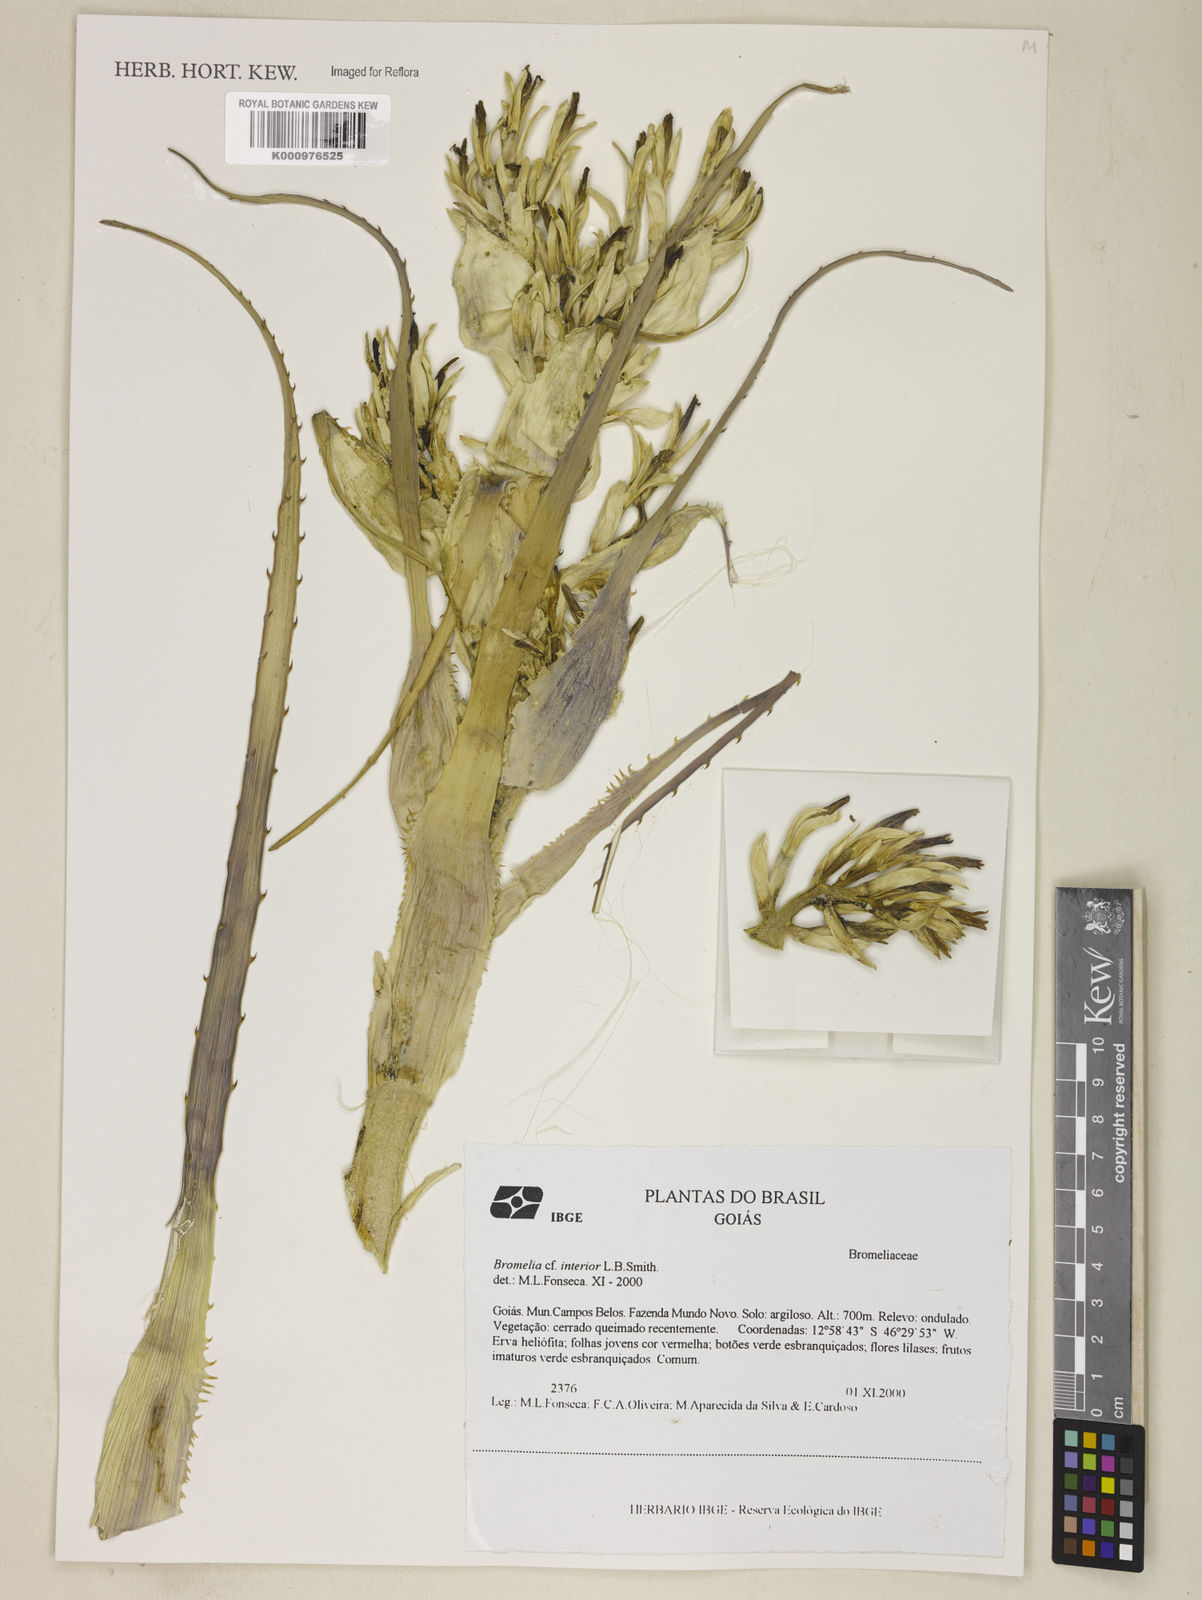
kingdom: Plantae
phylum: Tracheophyta
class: Liliopsida
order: Poales
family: Bromeliaceae
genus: Bromelia
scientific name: Bromelia interior
